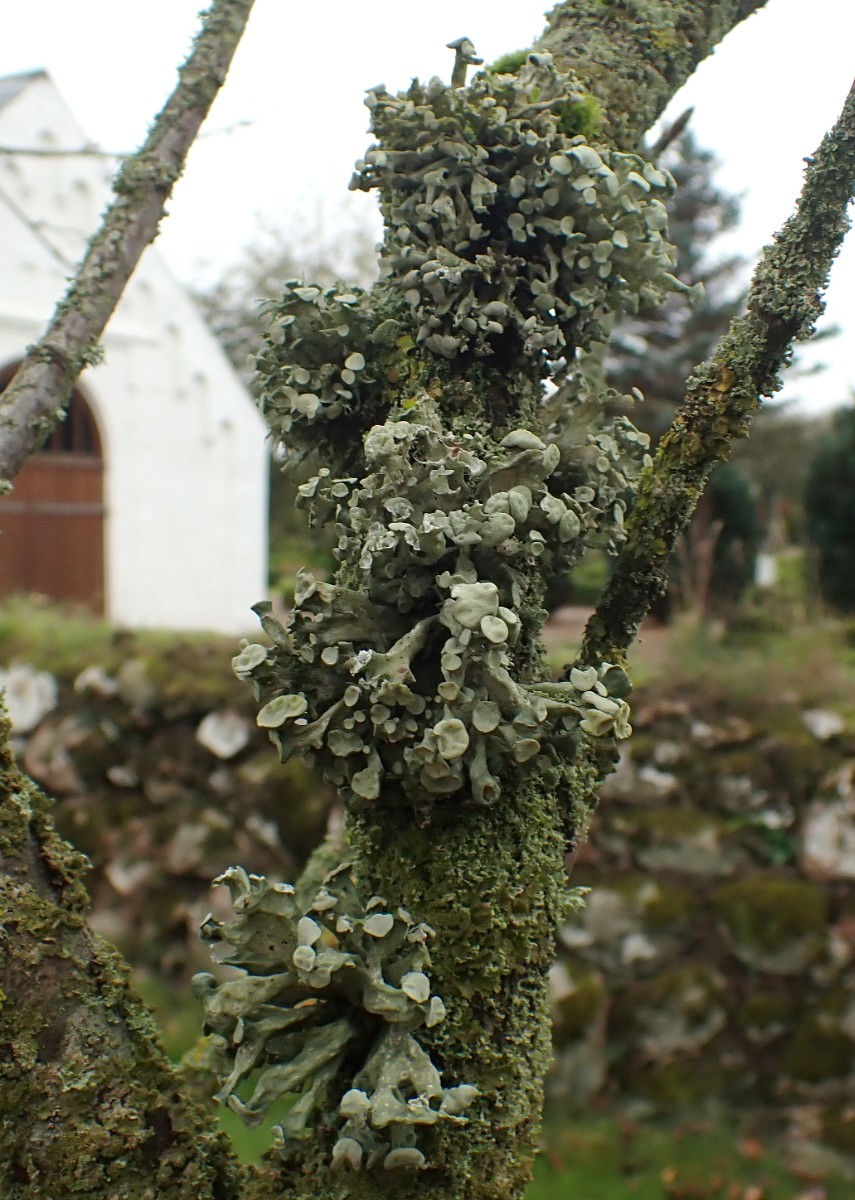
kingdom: Fungi
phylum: Ascomycota
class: Lecanoromycetes
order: Lecanorales
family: Ramalinaceae
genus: Ramalina
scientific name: Ramalina fastigiata
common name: tue-grenlav
